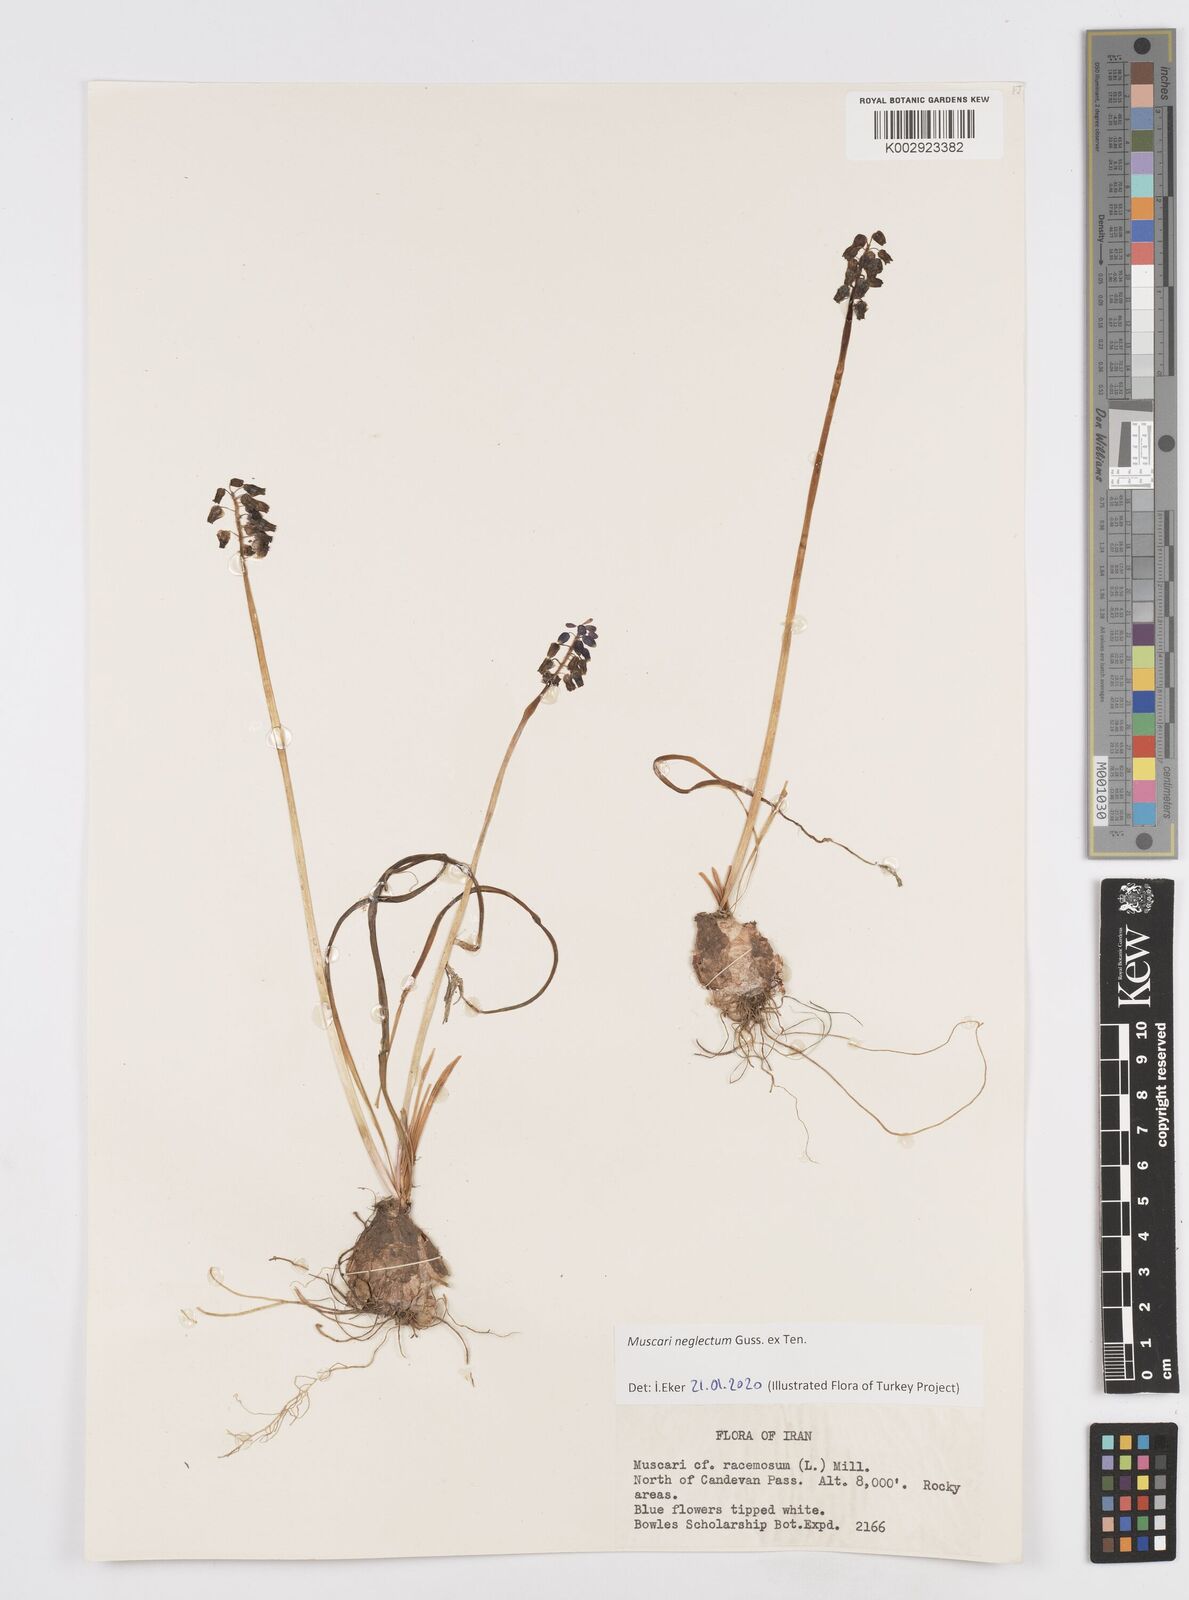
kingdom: Plantae
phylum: Tracheophyta
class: Liliopsida
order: Asparagales
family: Asparagaceae
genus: Muscari
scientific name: Muscari neglectum
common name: Grape-hyacinth
